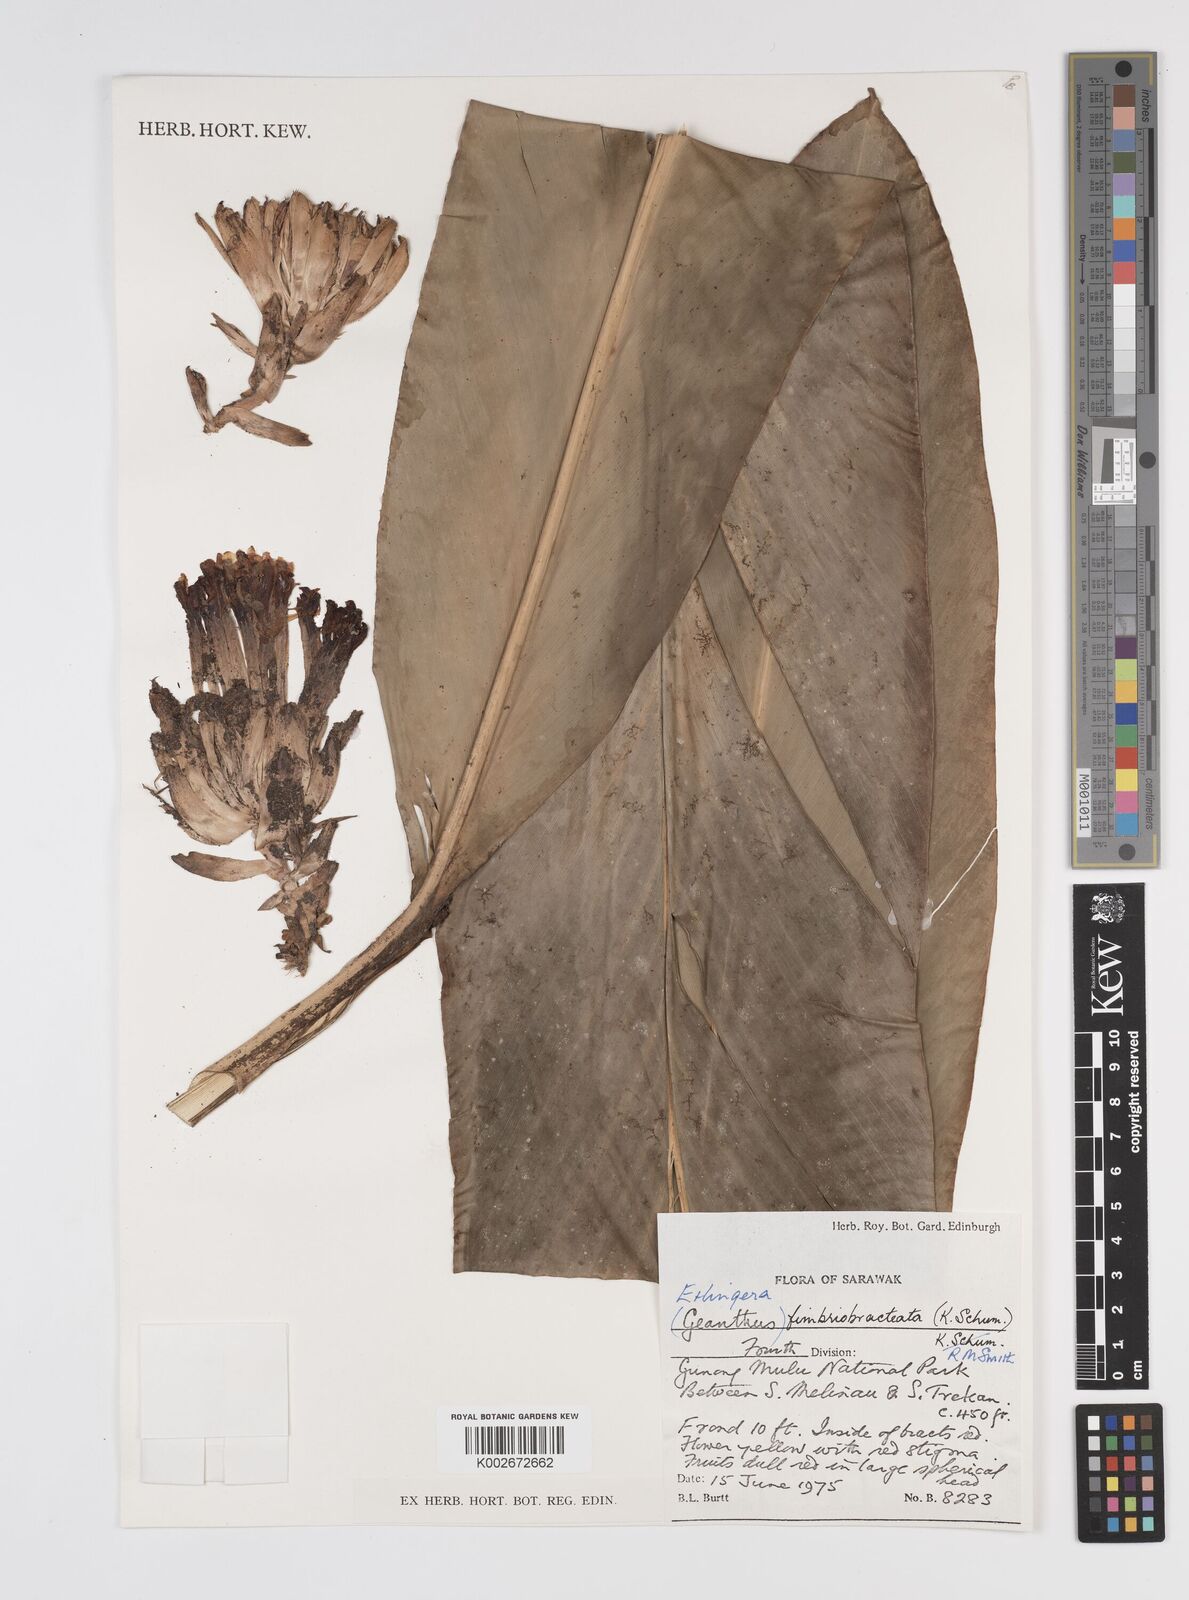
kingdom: Plantae
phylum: Tracheophyta
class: Liliopsida
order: Zingiberales
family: Zingiberaceae
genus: Etlingera
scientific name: Etlingera fimbriobracteata
